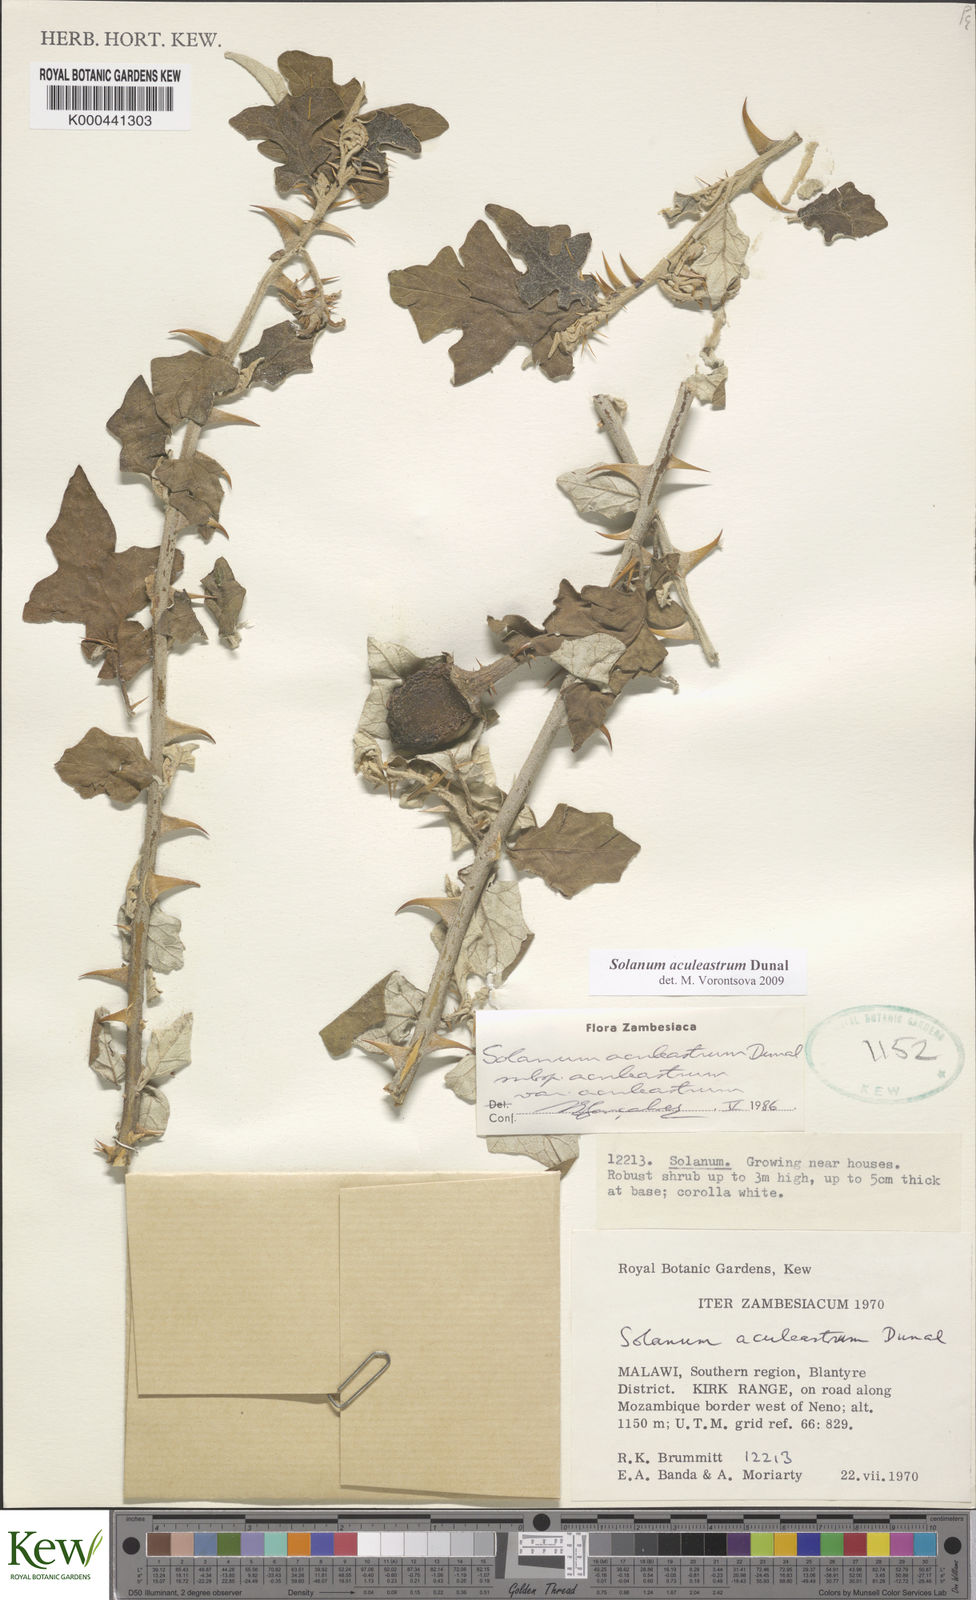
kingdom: Plantae
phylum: Tracheophyta
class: Magnoliopsida
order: Solanales
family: Solanaceae
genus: Solanum
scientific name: Solanum aculeastrum
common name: Goat bitter-apple
